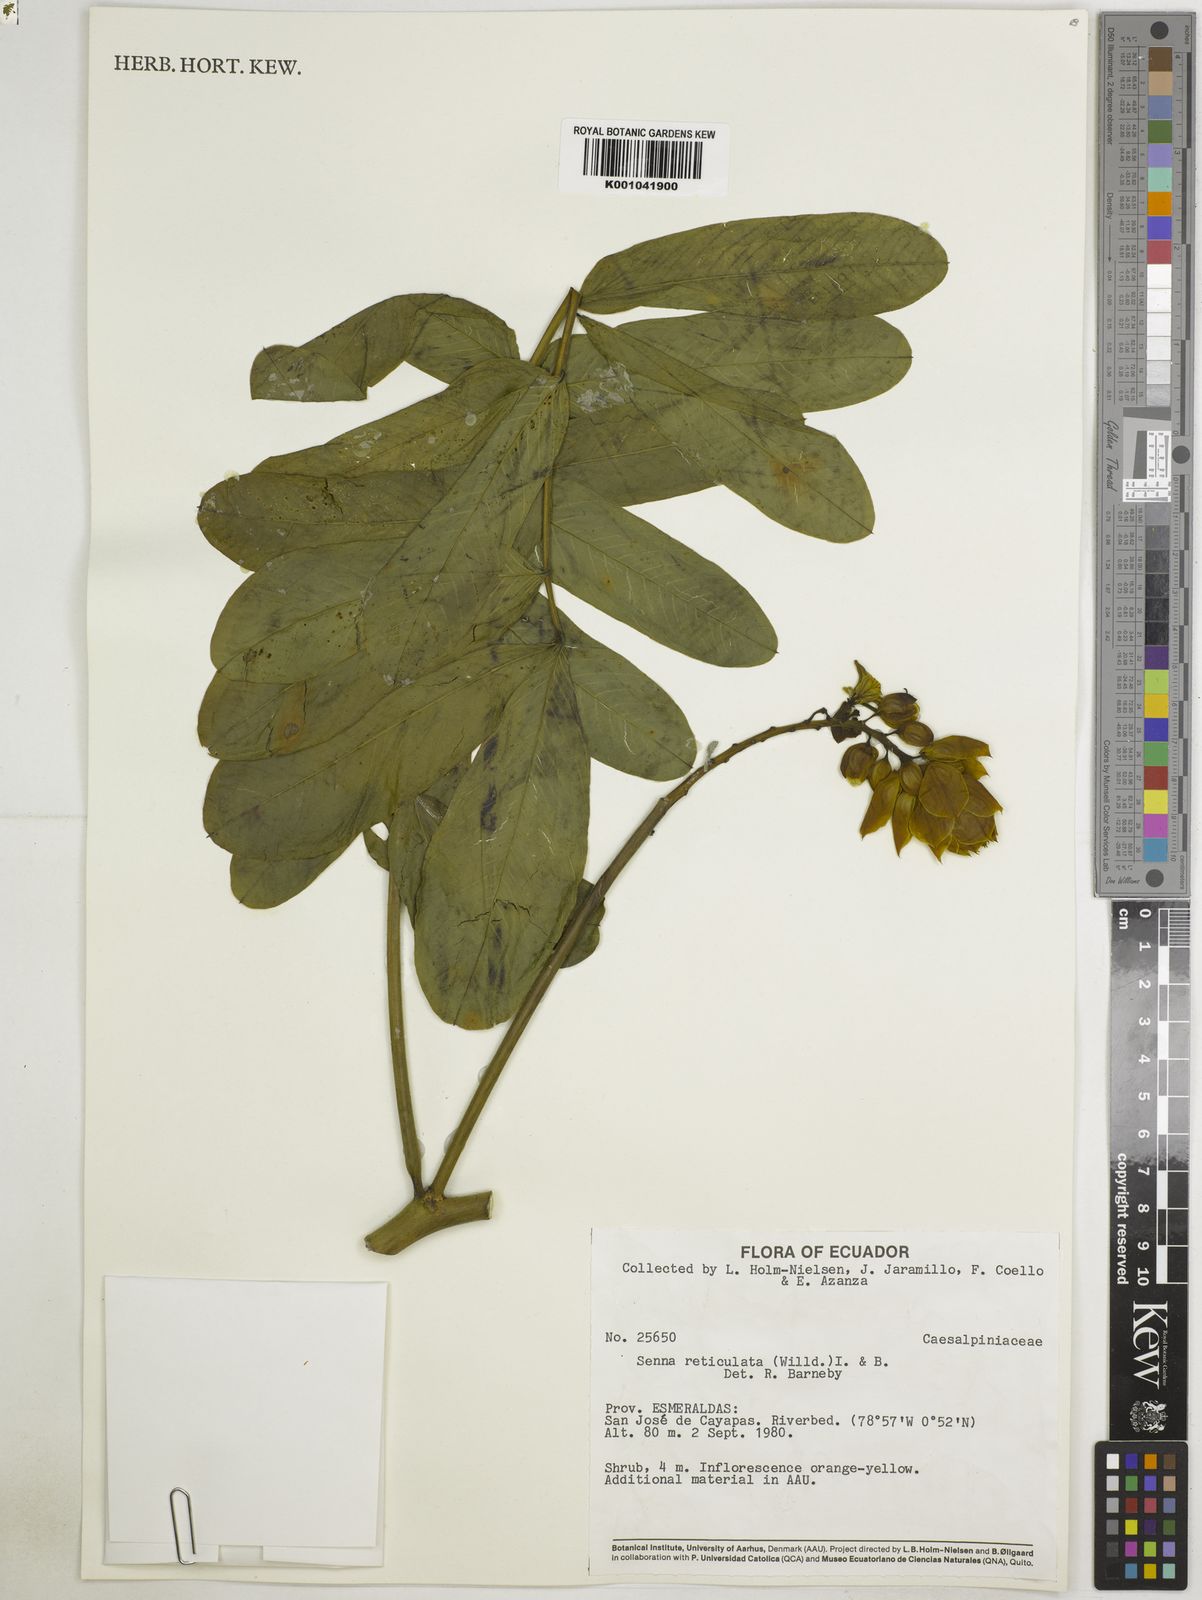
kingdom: Plantae
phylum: Tracheophyta
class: Magnoliopsida
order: Fabales
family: Fabaceae
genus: Senna
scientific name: Senna reticulata
